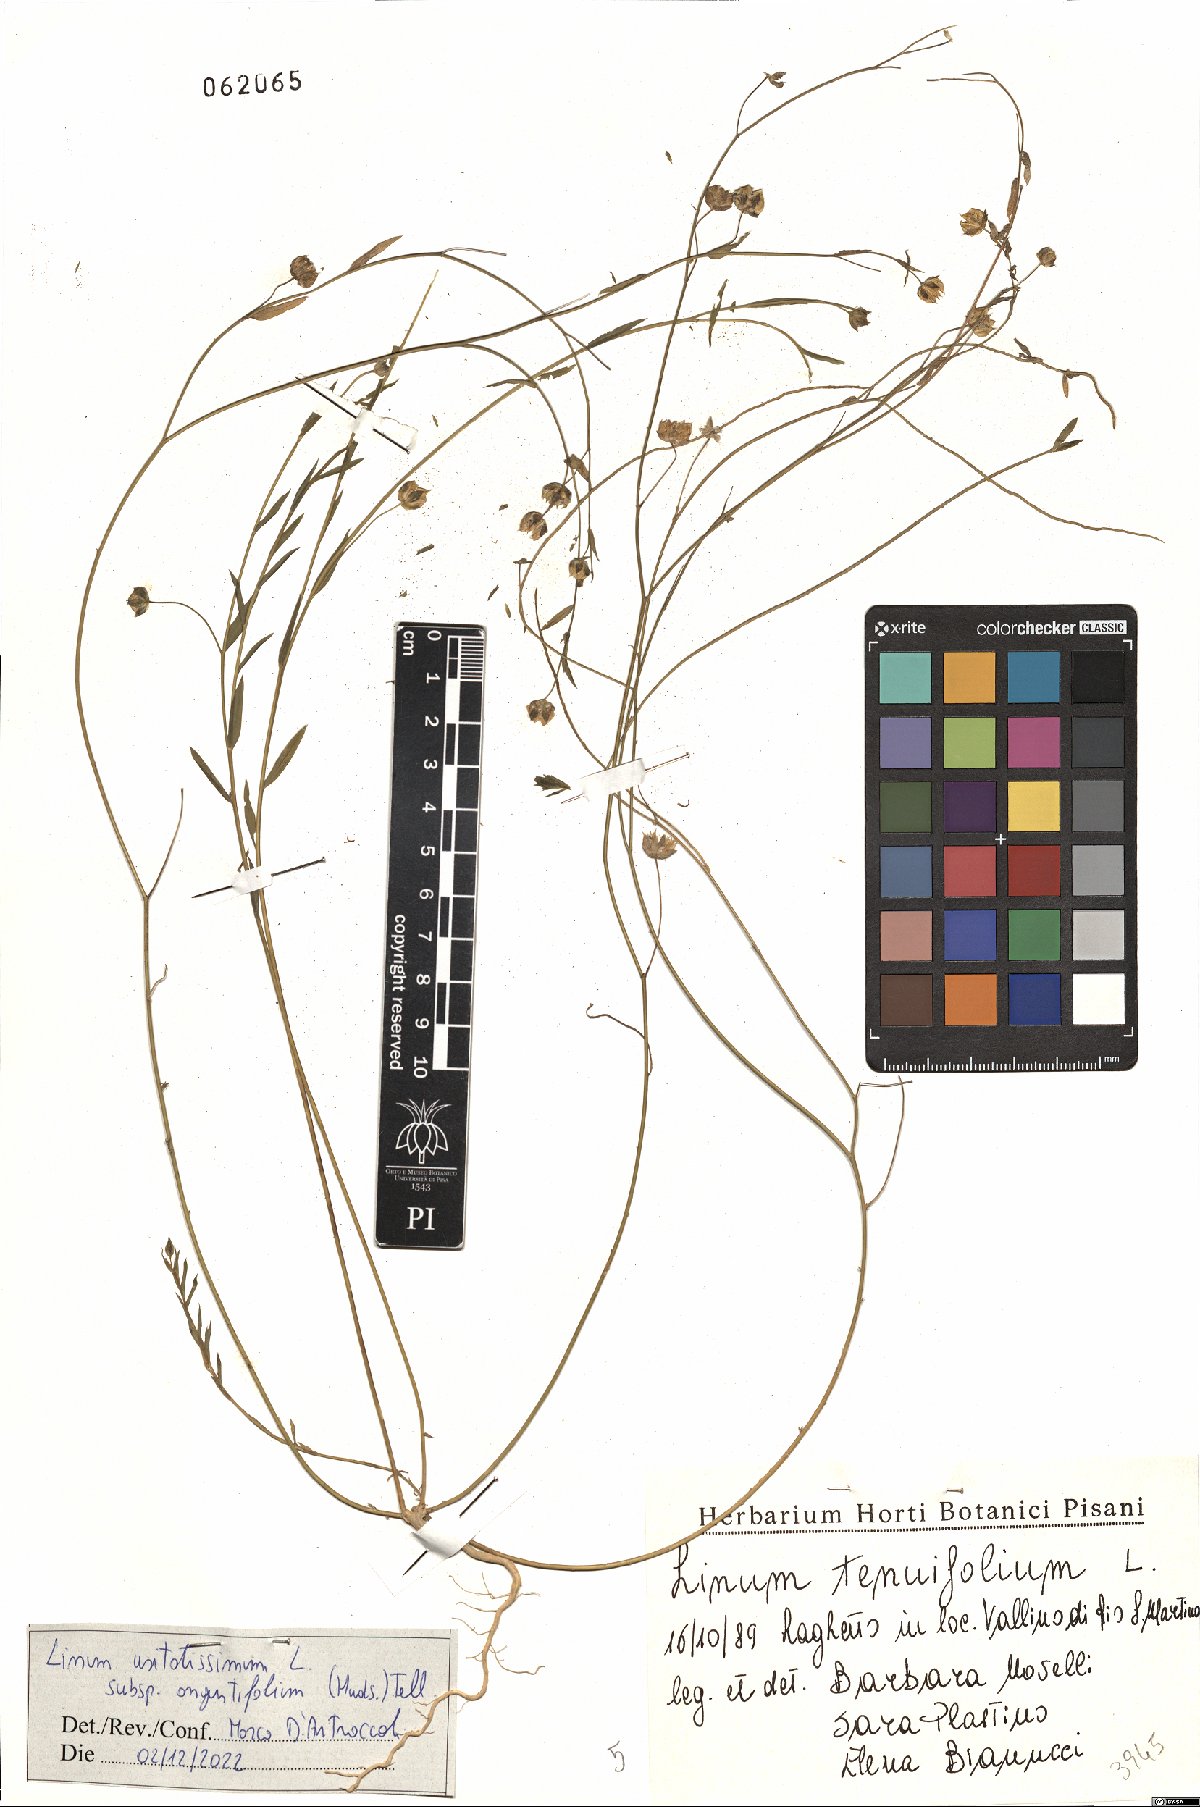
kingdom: Plantae
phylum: Tracheophyta
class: Magnoliopsida
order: Malpighiales
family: Linaceae
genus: Linum
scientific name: Linum bienne
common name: Pale flax
